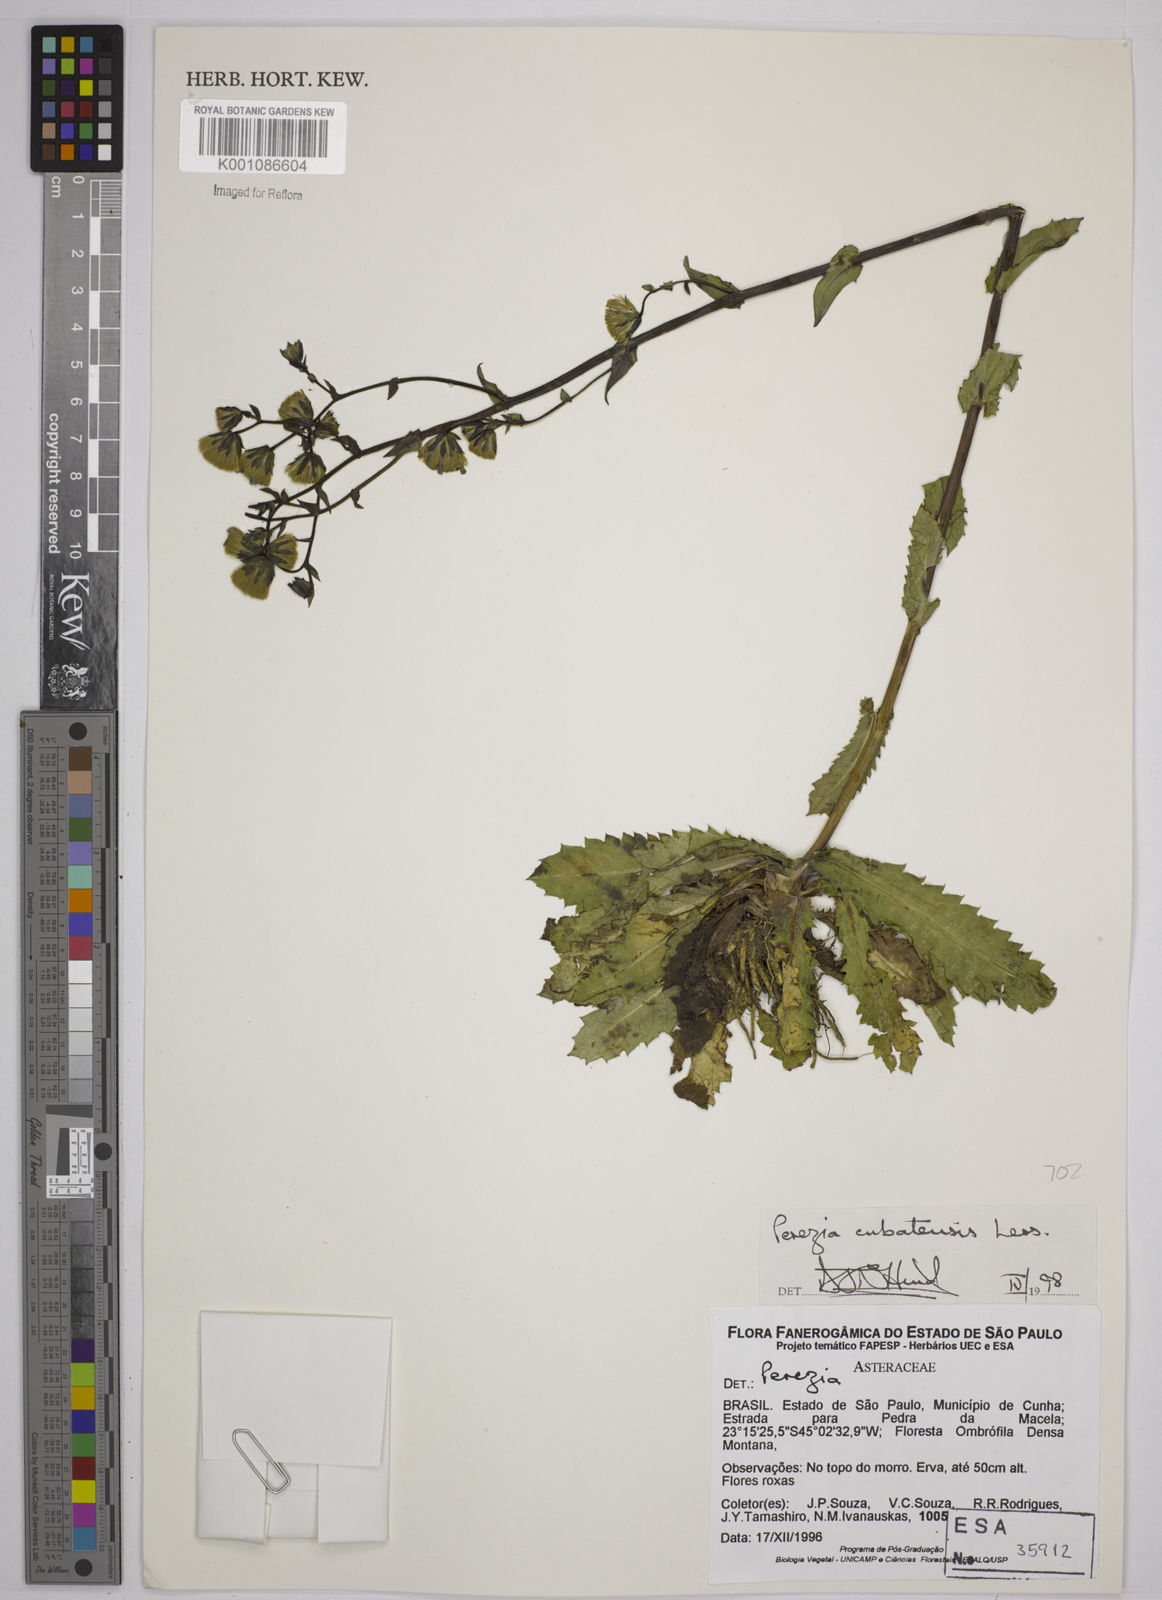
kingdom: Plantae
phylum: Tracheophyta
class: Magnoliopsida
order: Asterales
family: Asteraceae
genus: Perezia
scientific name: Perezia squarrosa
